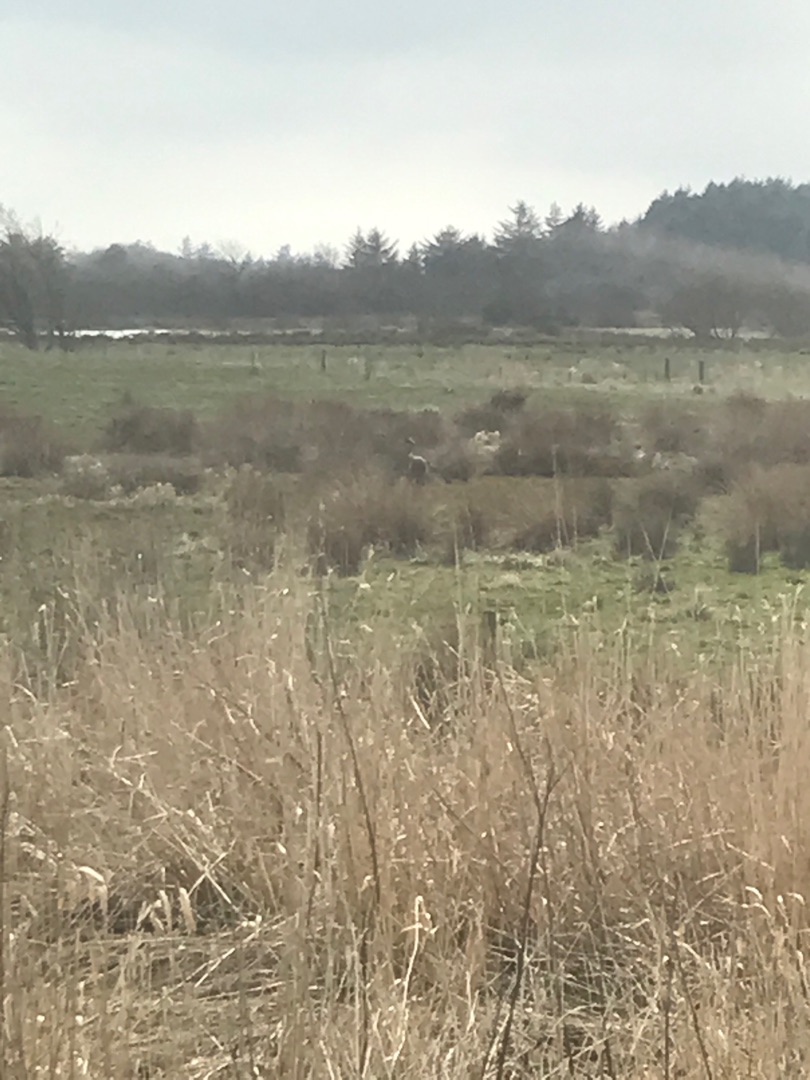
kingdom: Animalia
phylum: Chordata
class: Aves
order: Gruiformes
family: Gruidae
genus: Grus
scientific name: Grus grus
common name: Trane
